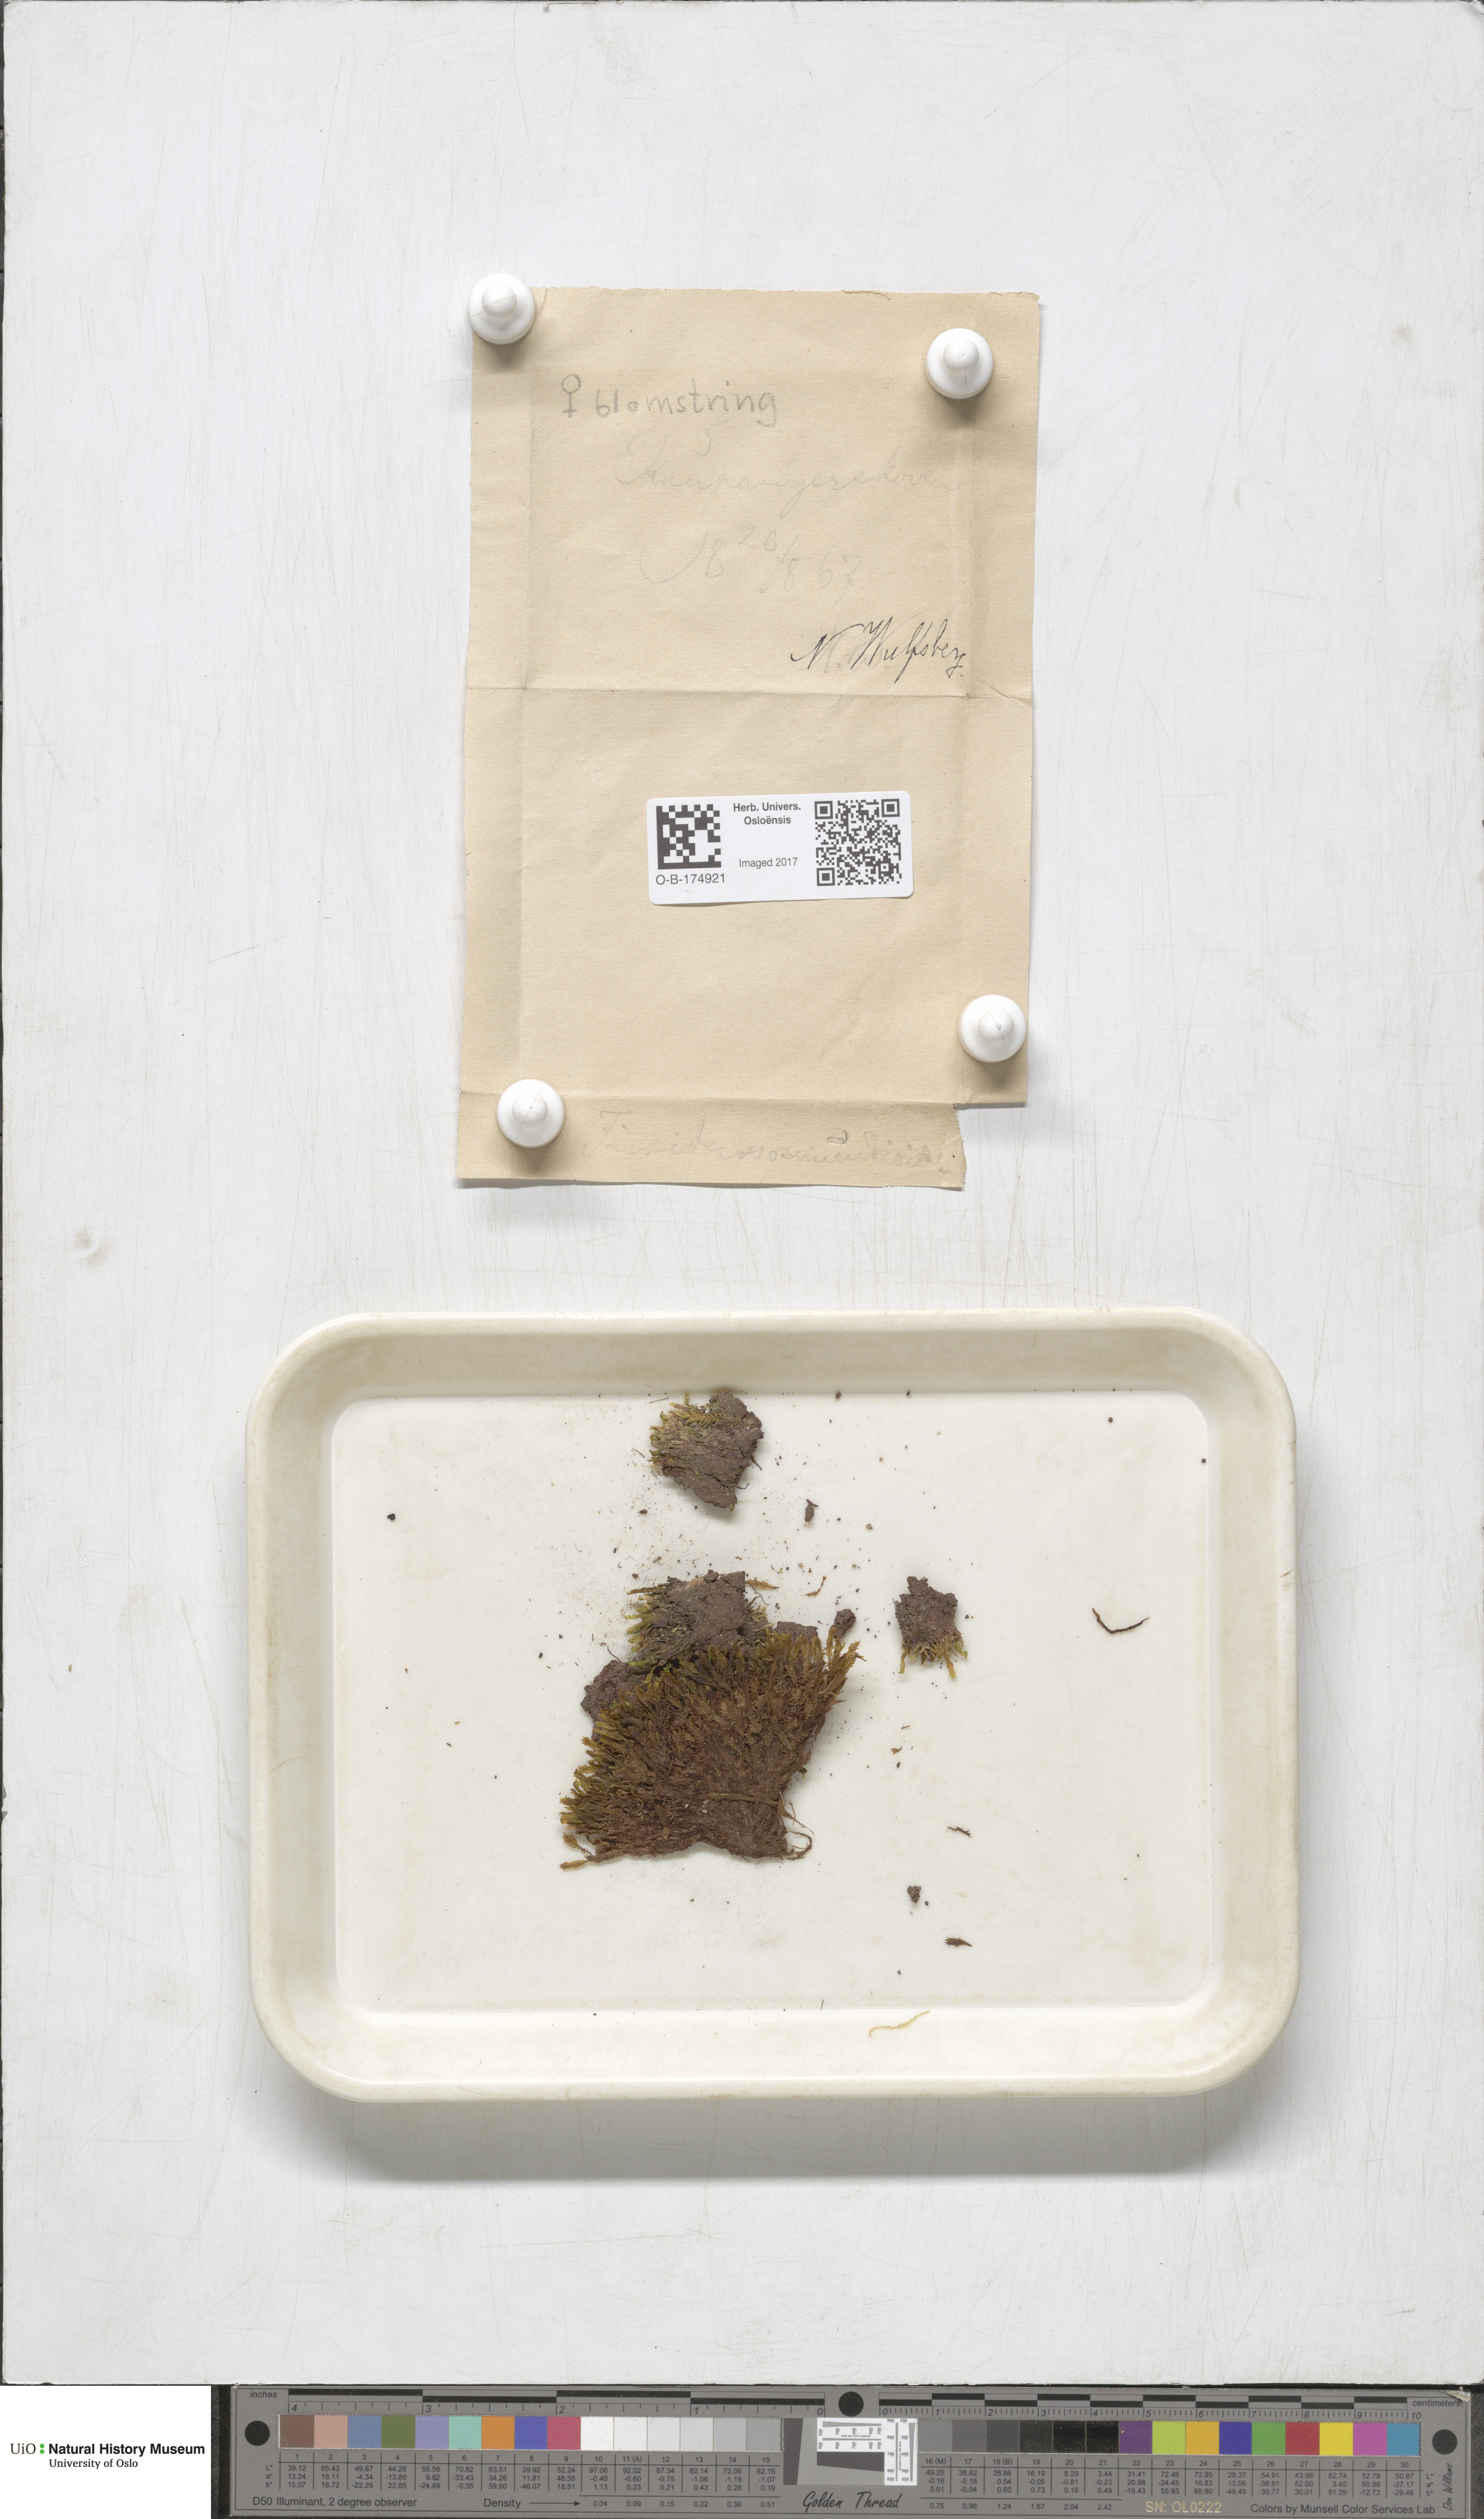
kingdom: Plantae
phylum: Bryophyta
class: Bryopsida
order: Dicranales
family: Fissidentaceae
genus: Fissidens
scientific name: Fissidens osmundoides
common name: Purple-stalked pocket moss
